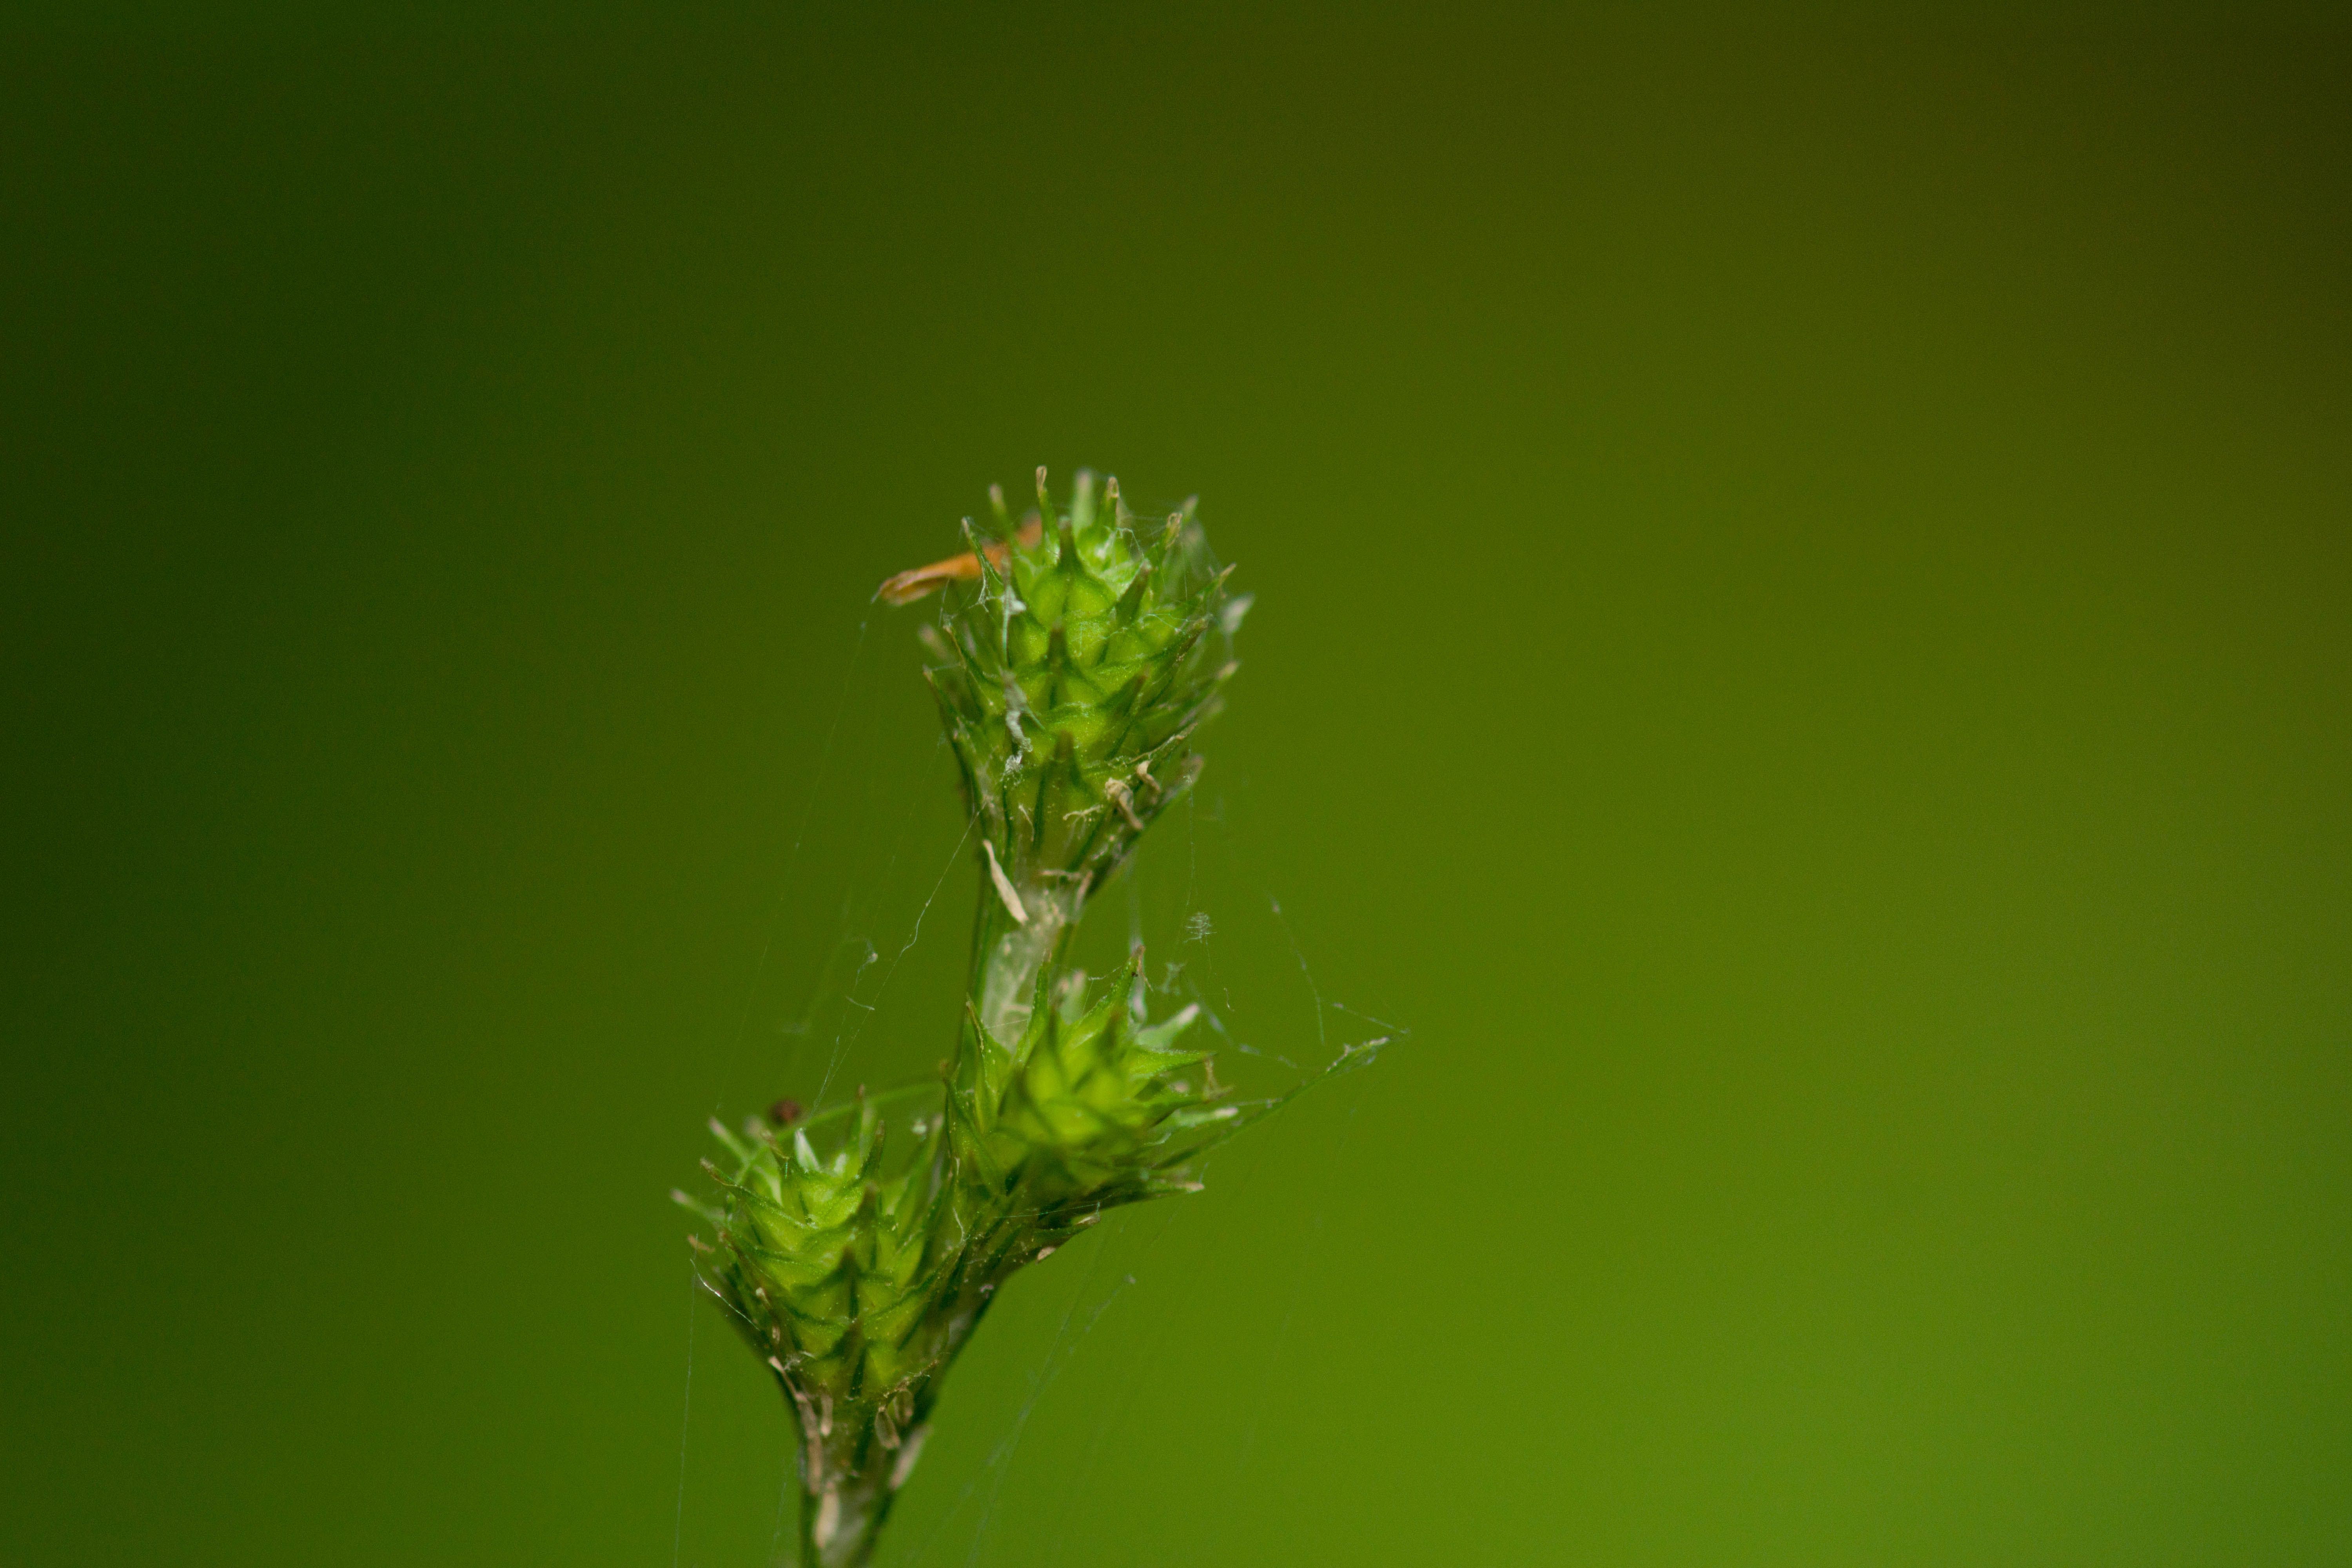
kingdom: Plantae
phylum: Tracheophyta
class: Liliopsida
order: Poales
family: Cyperaceae
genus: Carex
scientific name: Carex albolutescens
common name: Freenish white sedge
